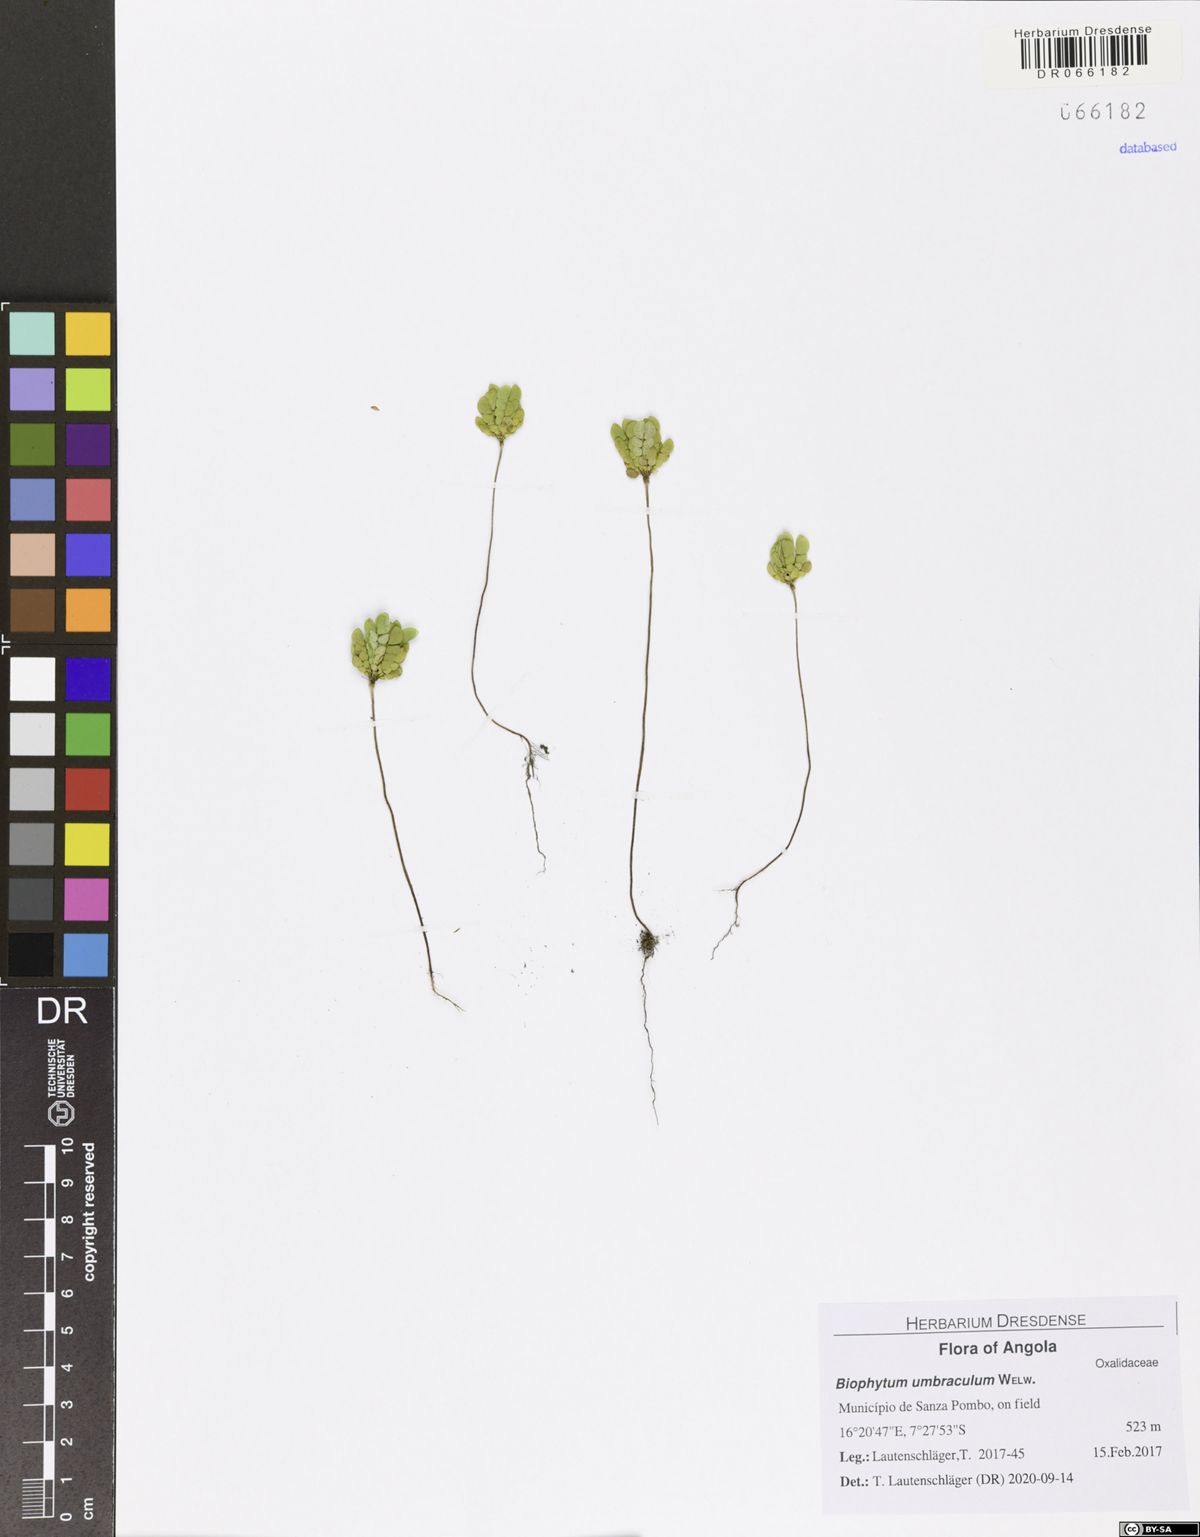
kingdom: Plantae
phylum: Tracheophyta
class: Magnoliopsida
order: Oxalidales
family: Oxalidaceae
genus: Biophytum
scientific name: Biophytum umbraculum
